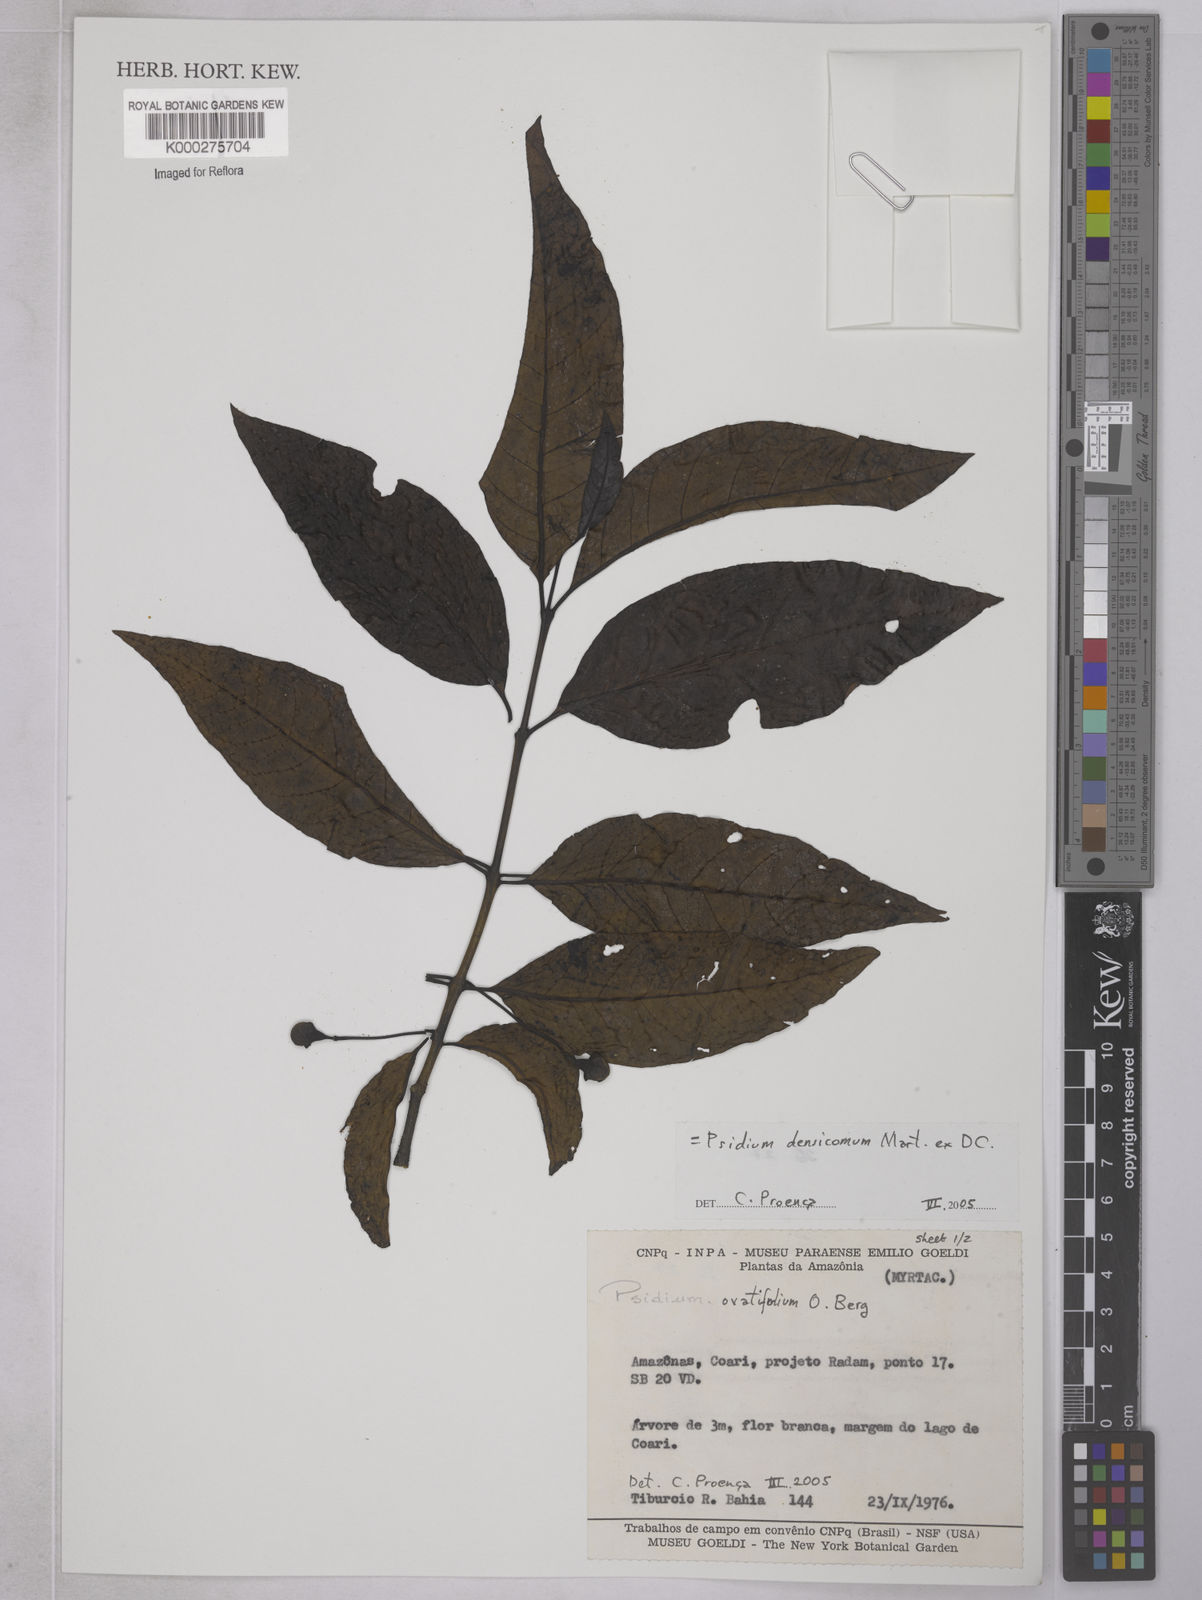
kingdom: Plantae
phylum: Tracheophyta
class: Magnoliopsida
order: Myrtales
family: Myrtaceae
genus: Psidium
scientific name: Psidium densicomum
